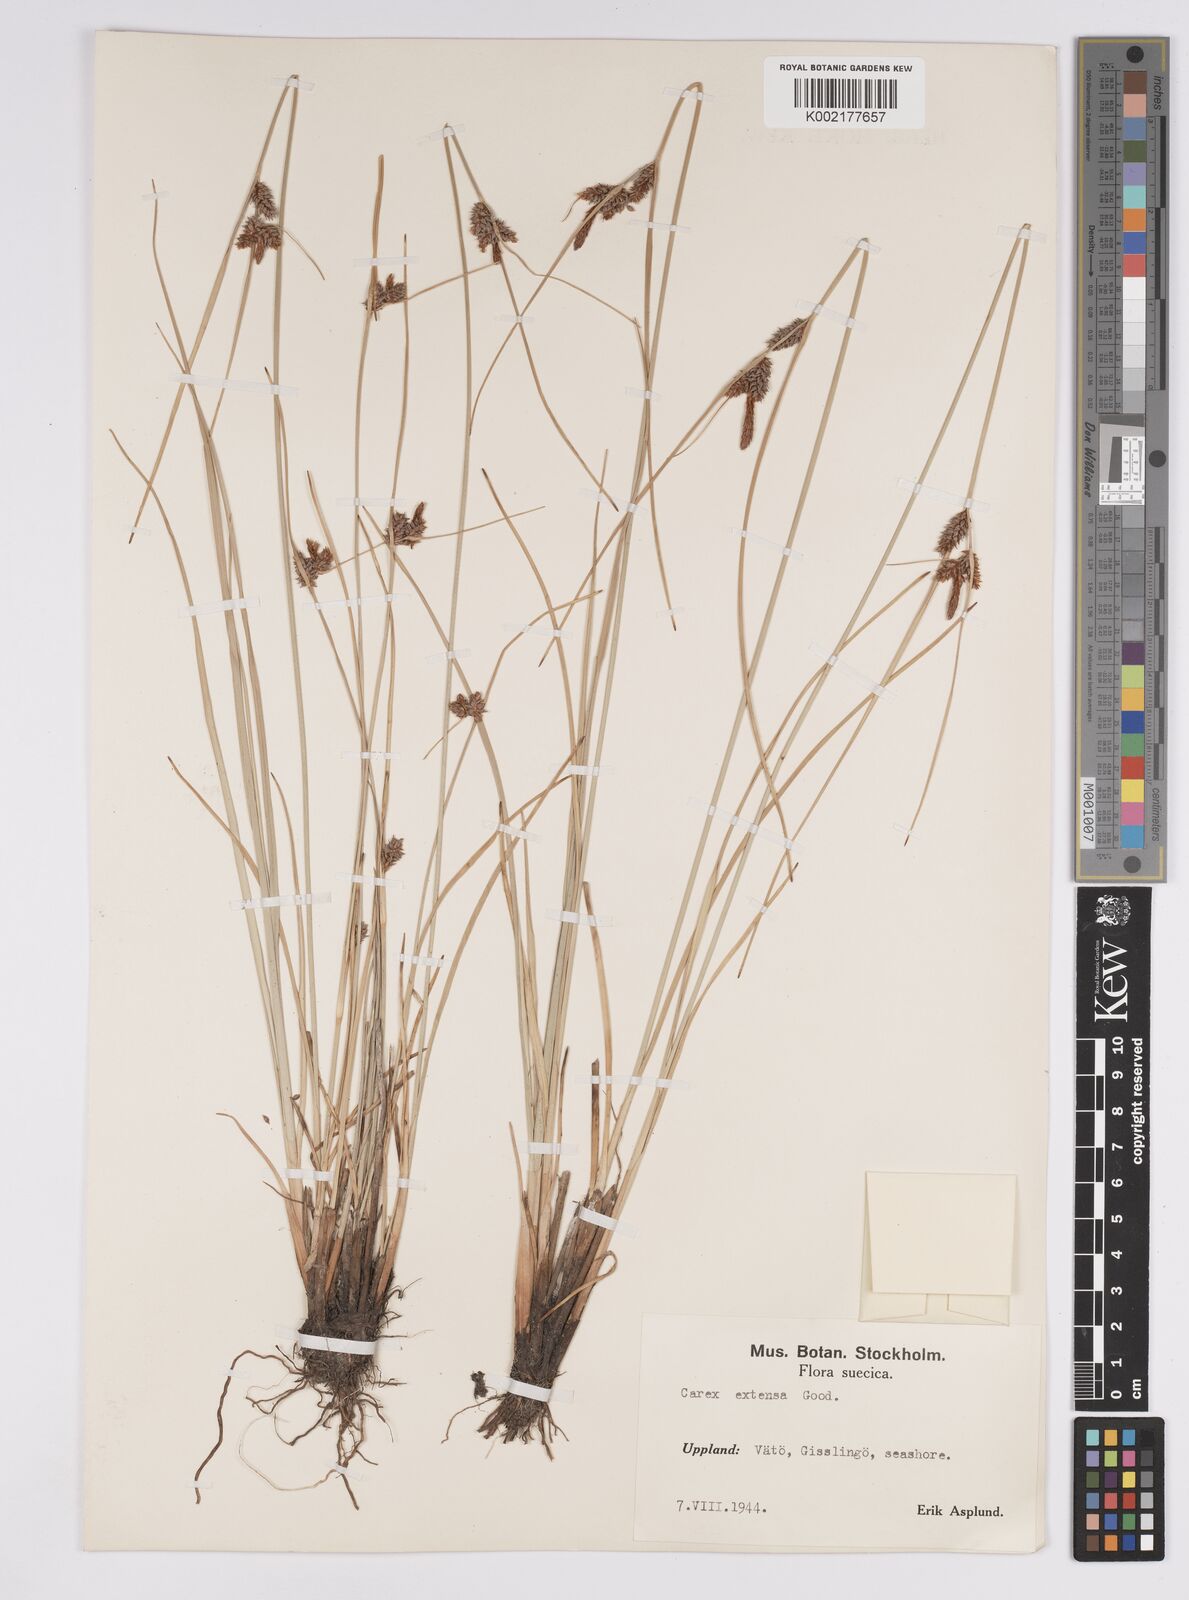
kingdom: Plantae
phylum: Tracheophyta
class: Liliopsida
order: Poales
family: Cyperaceae
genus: Carex
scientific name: Carex extensa
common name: Long-bracted sedge
